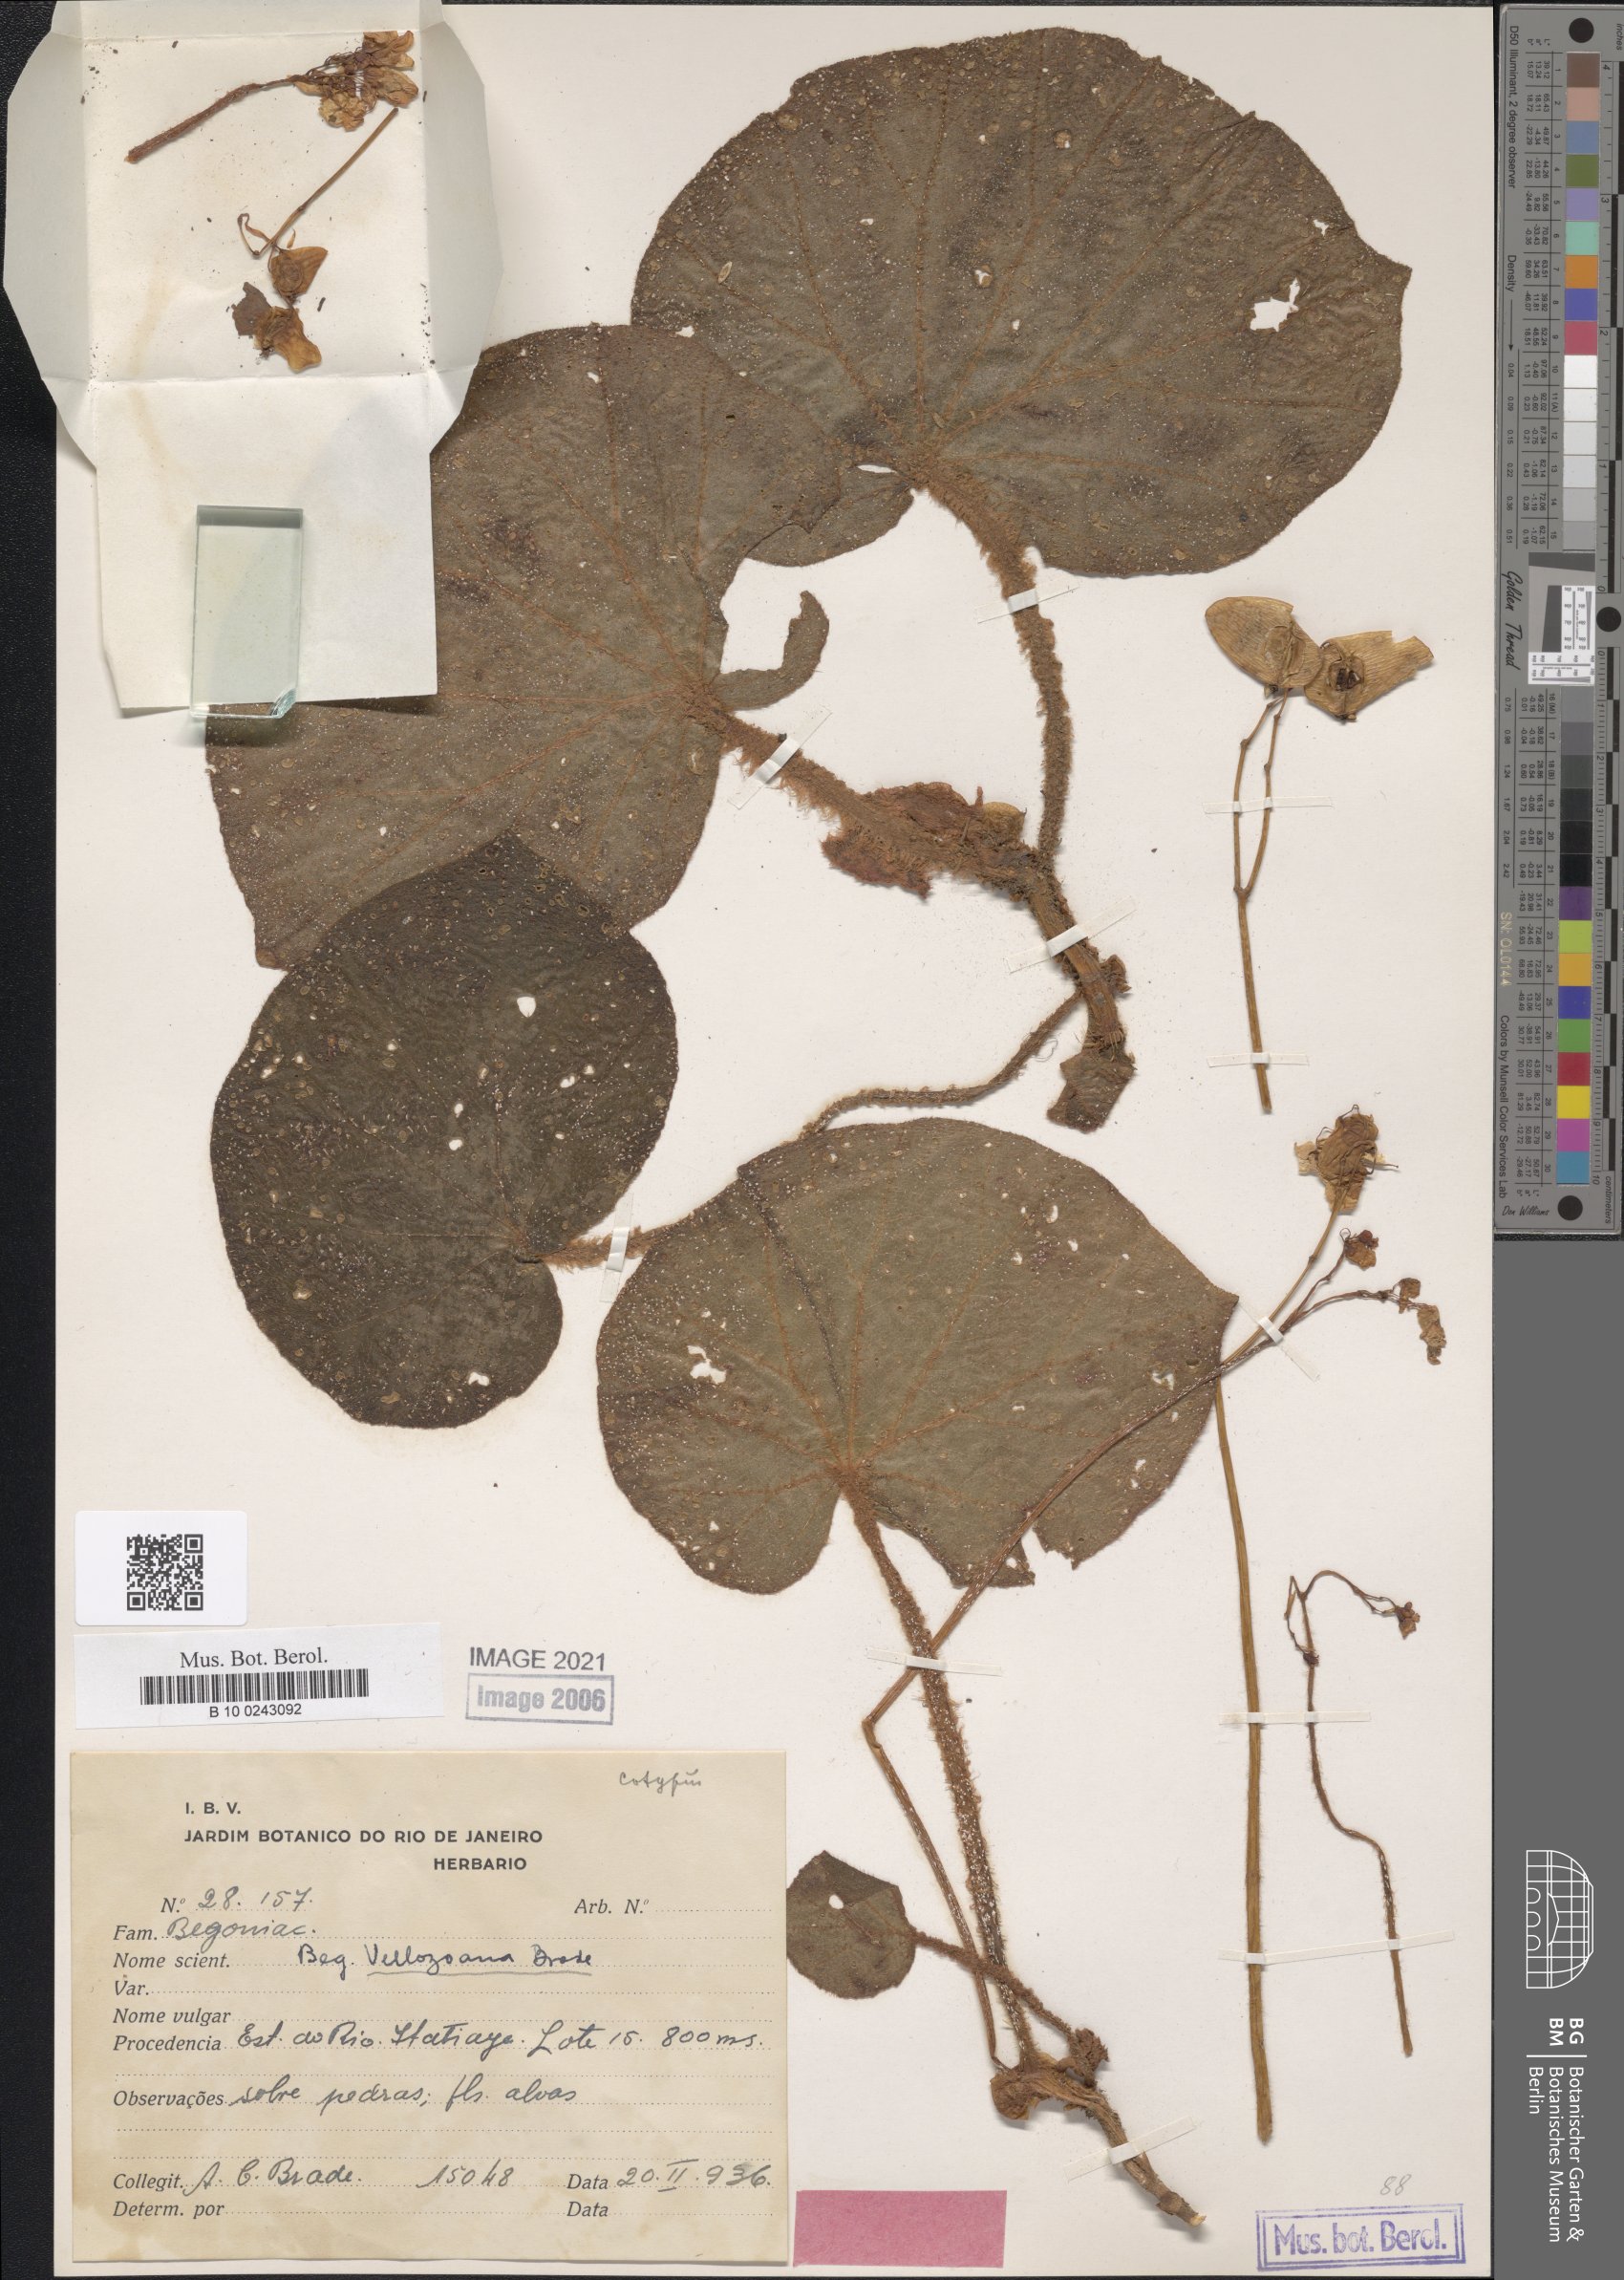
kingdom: Plantae
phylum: Tracheophyta
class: Magnoliopsida
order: Cucurbitales
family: Begoniaceae
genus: Begonia
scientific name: Begonia olsoniae
